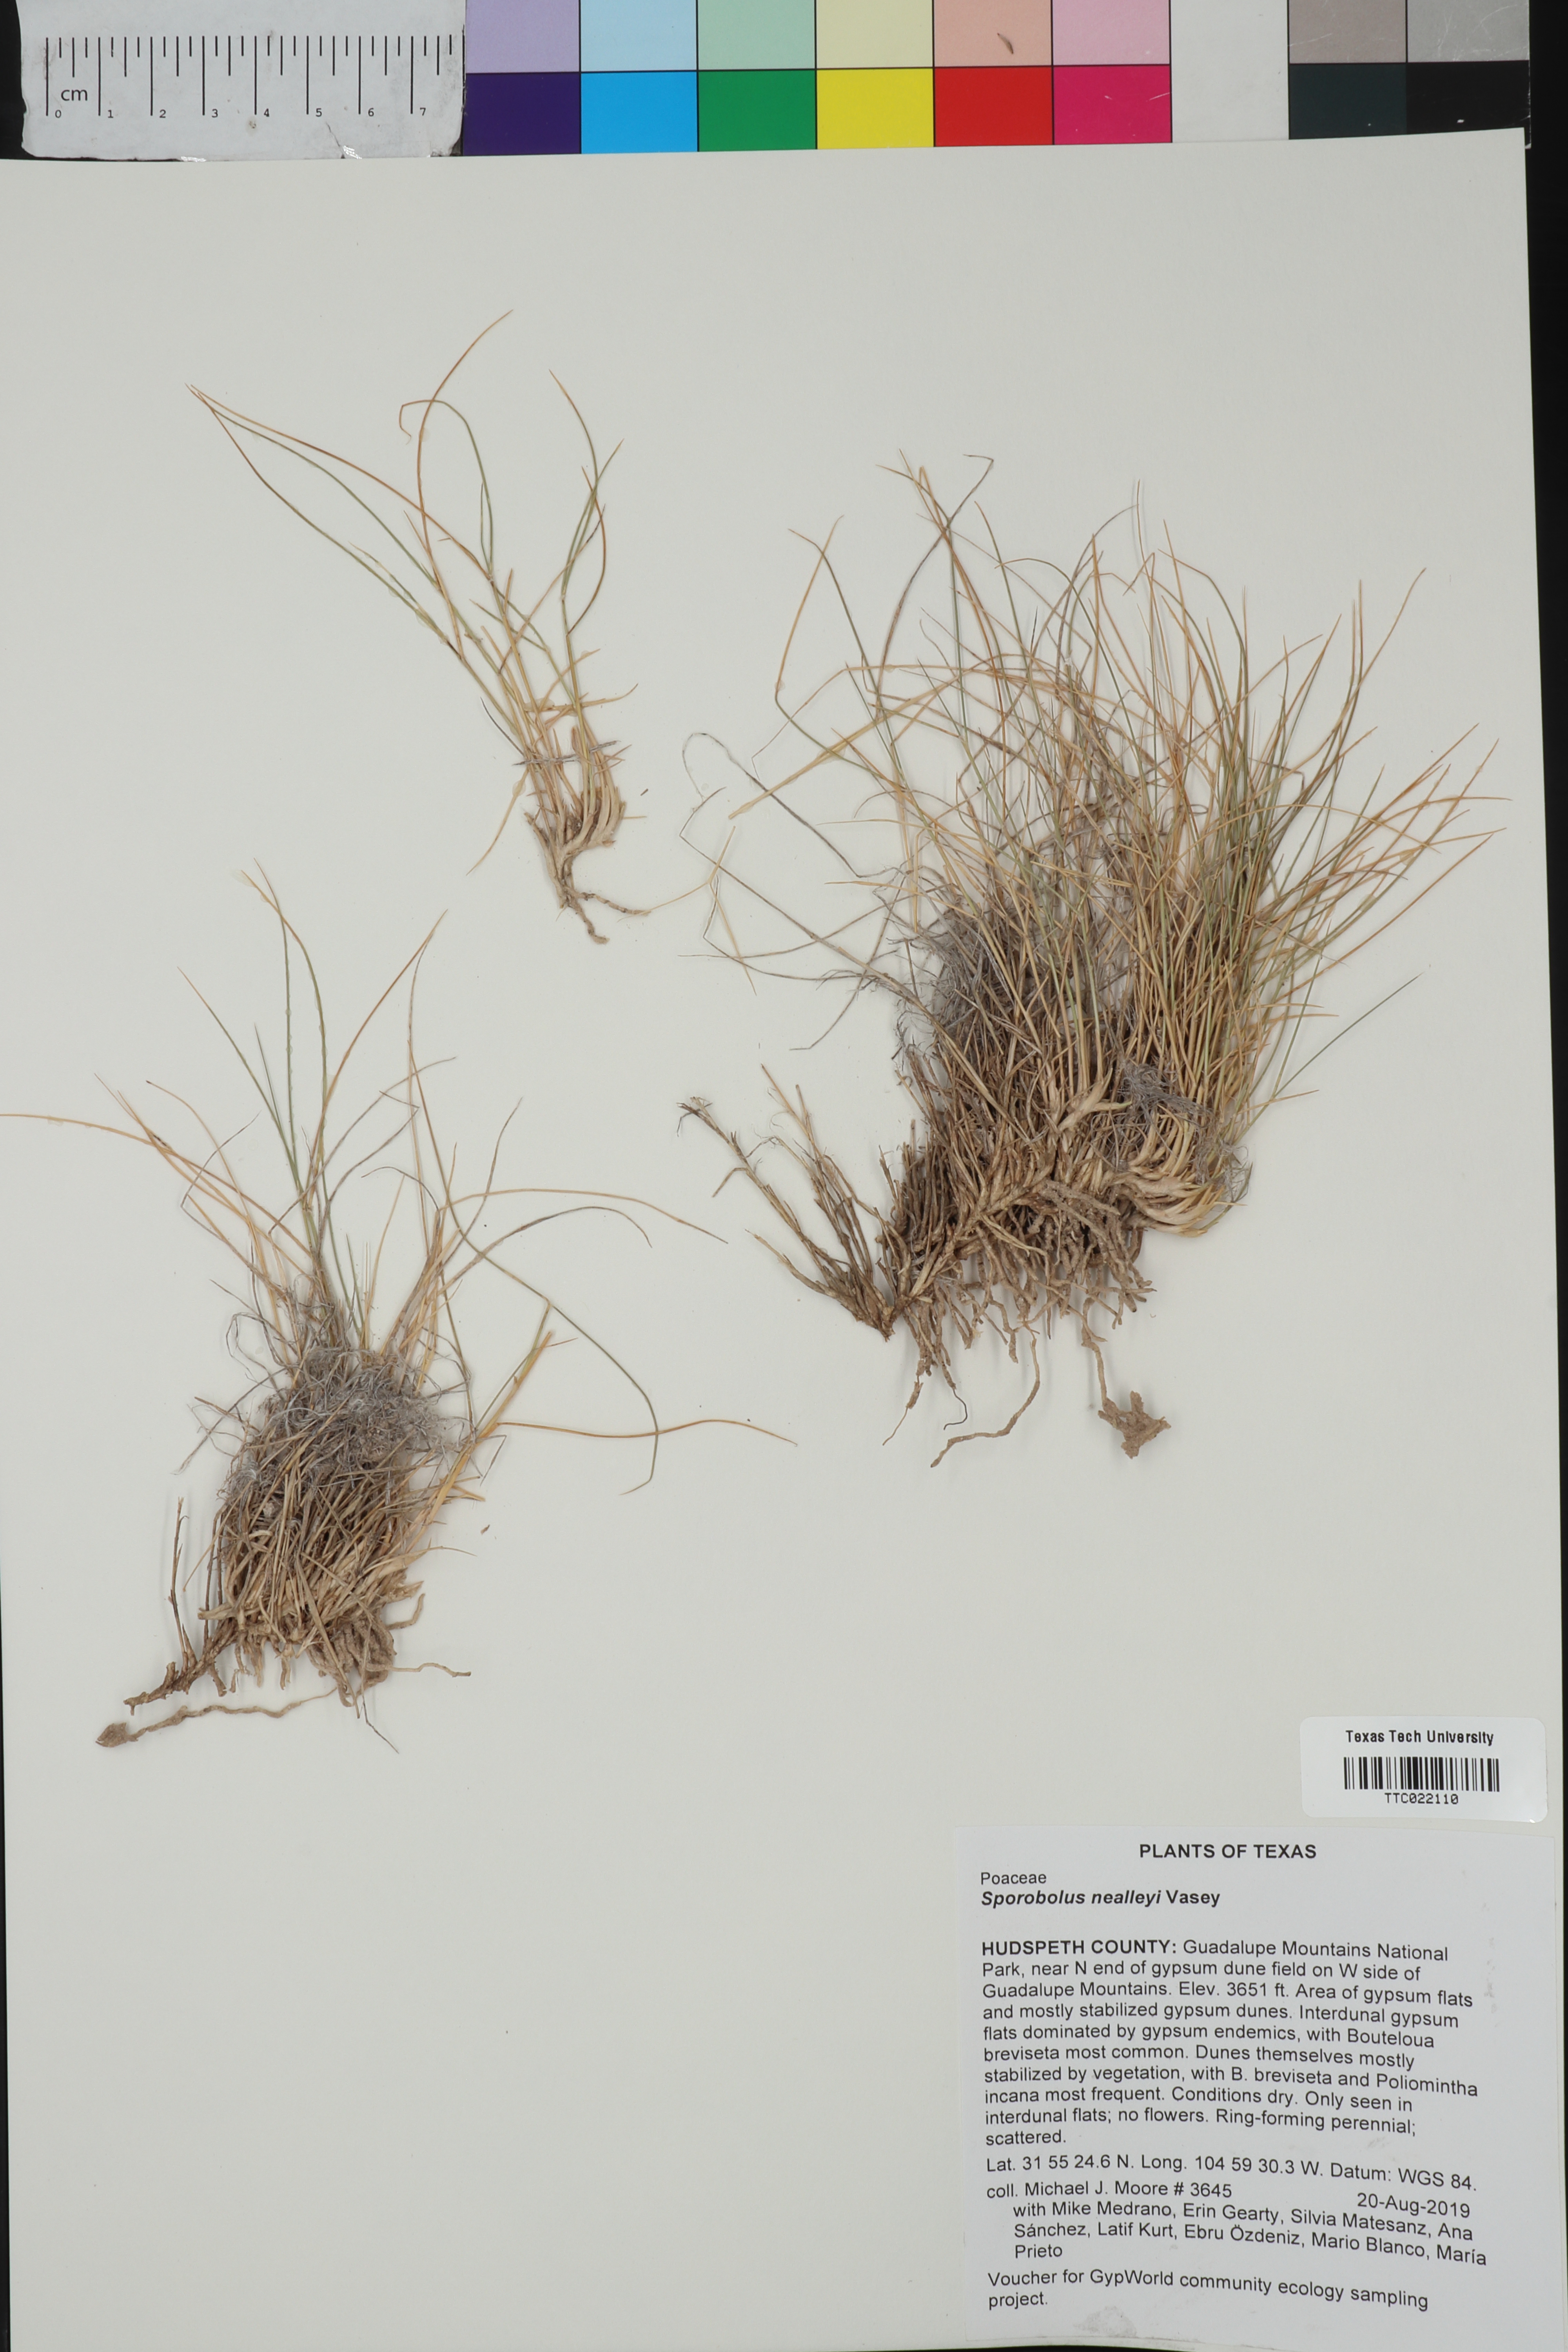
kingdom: Plantae
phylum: Tracheophyta
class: Liliopsida
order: Poales
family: Poaceae
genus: Sporobolus
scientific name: Sporobolus nealleyi
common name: Gyp grass
